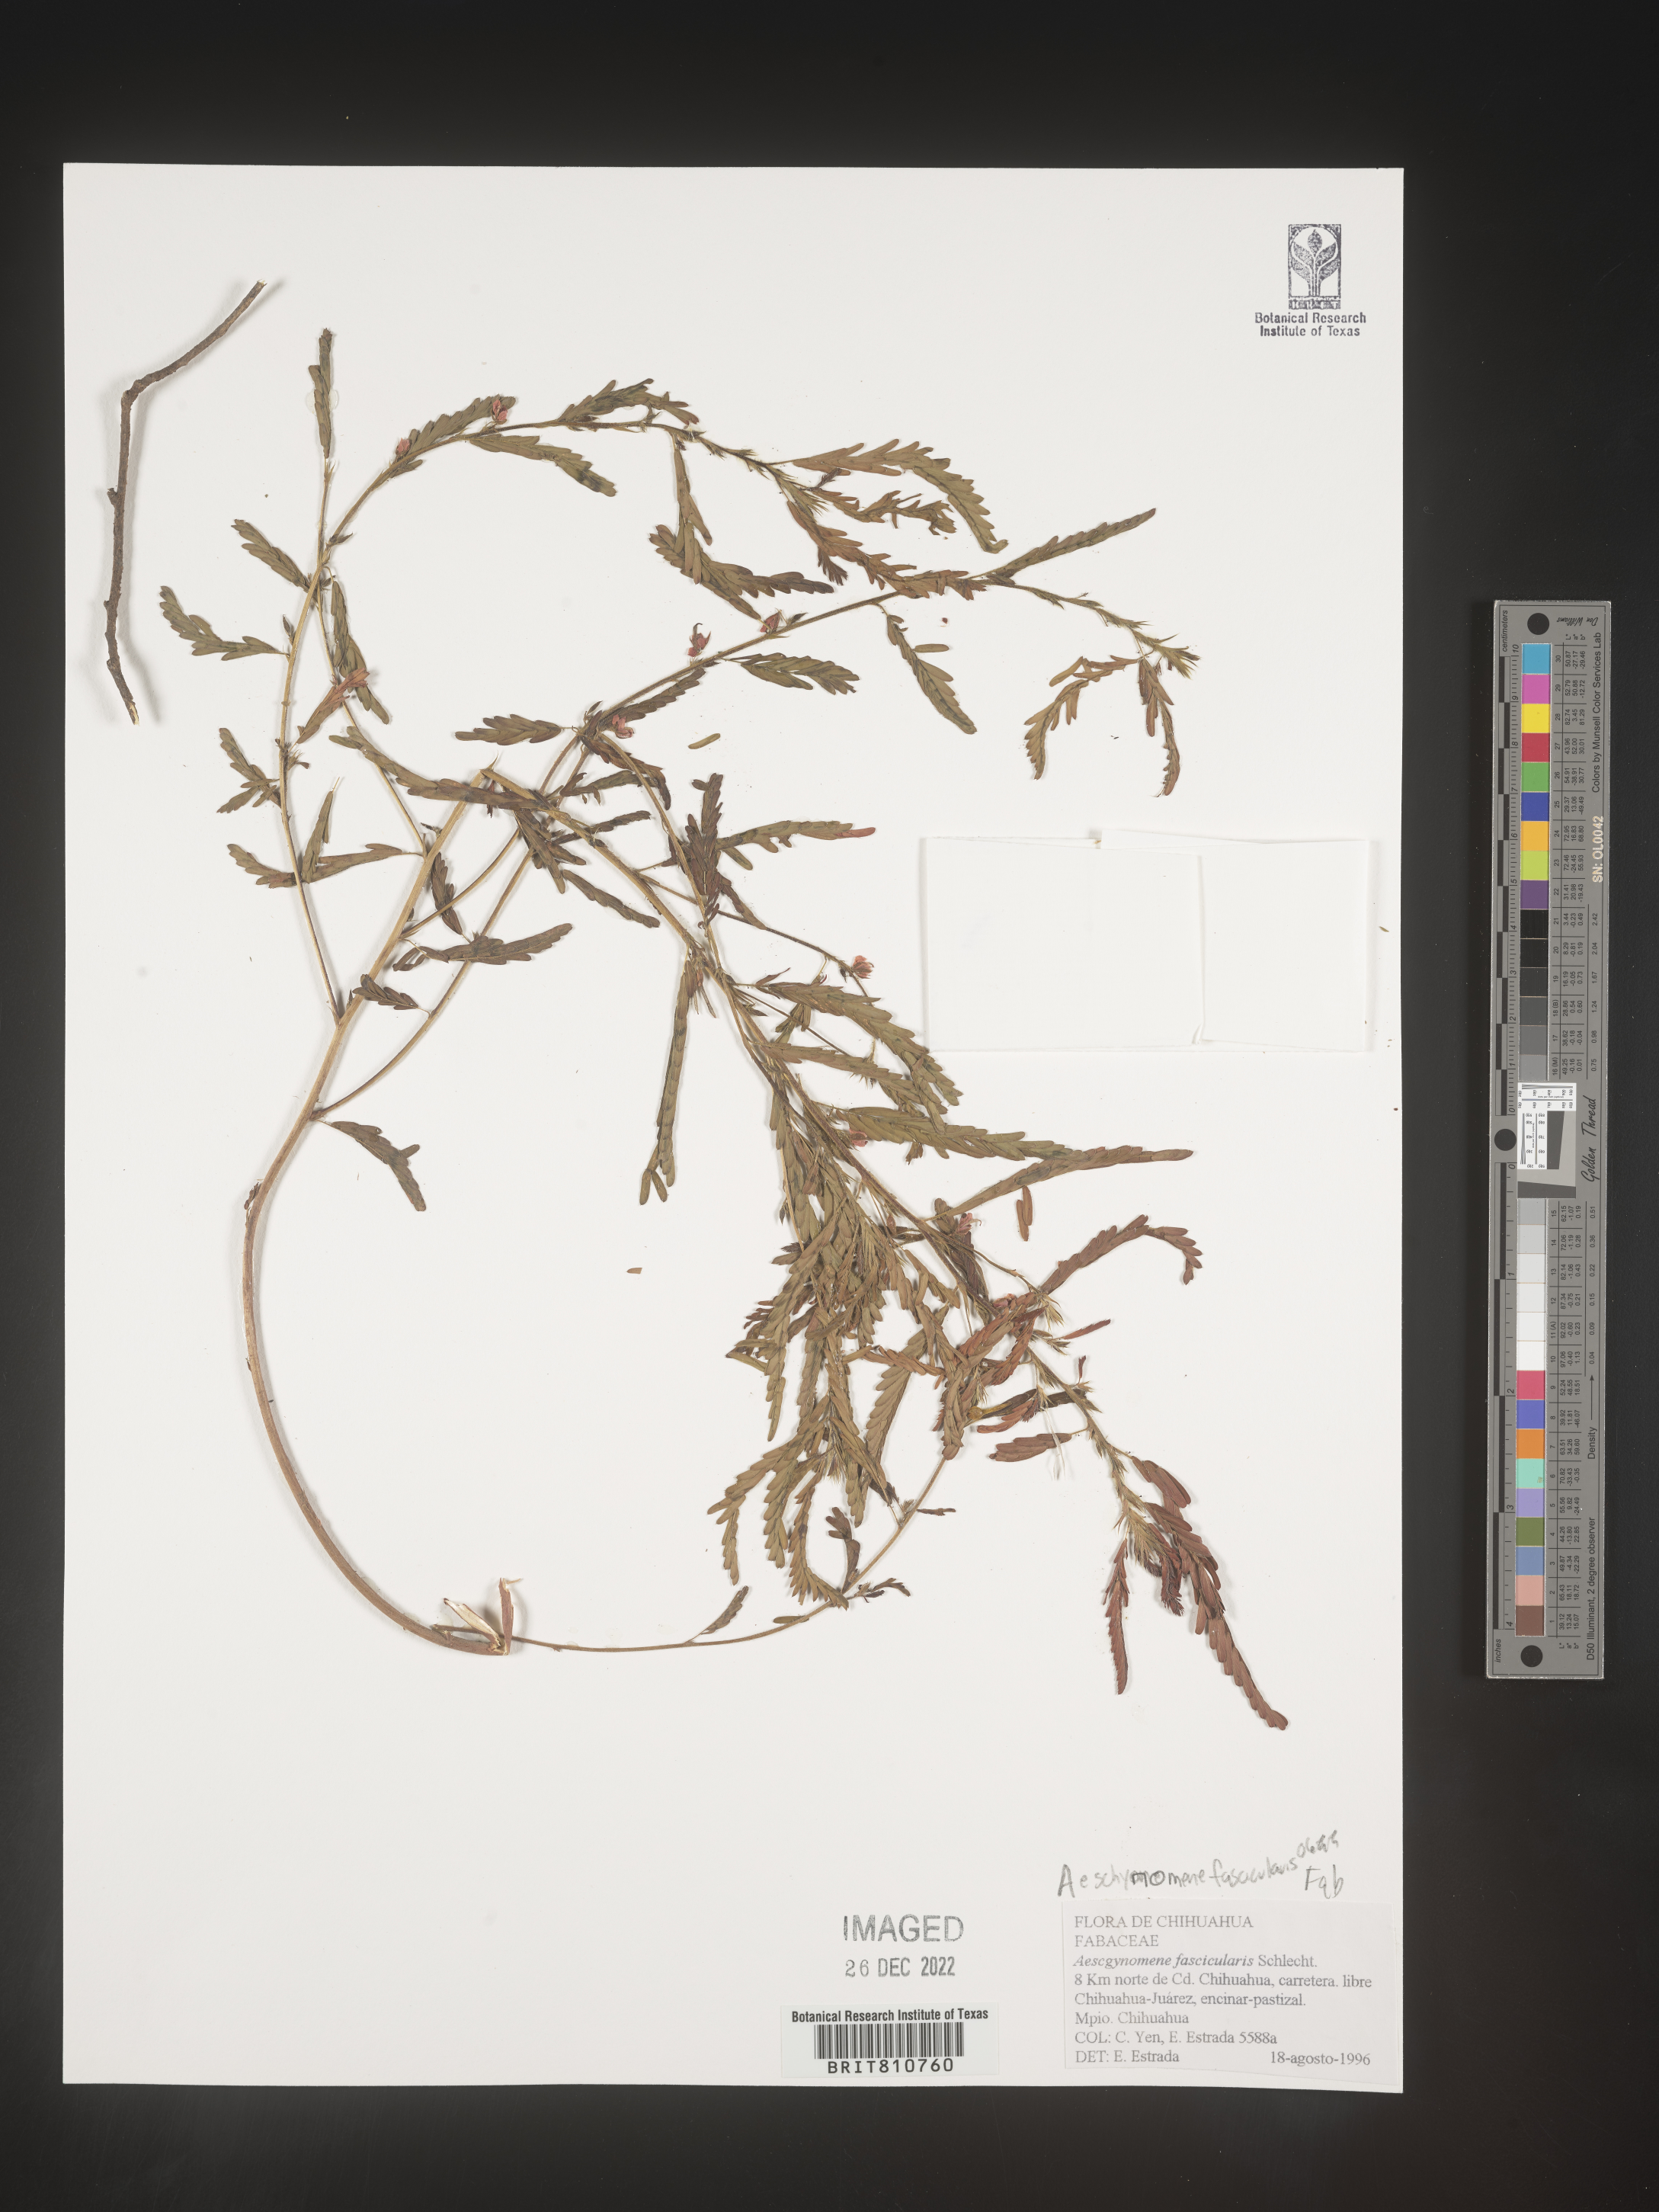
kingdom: Plantae
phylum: Tracheophyta
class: Magnoliopsida
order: Fabales
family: Fabaceae
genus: Aeschynomene
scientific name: Aeschynomene
